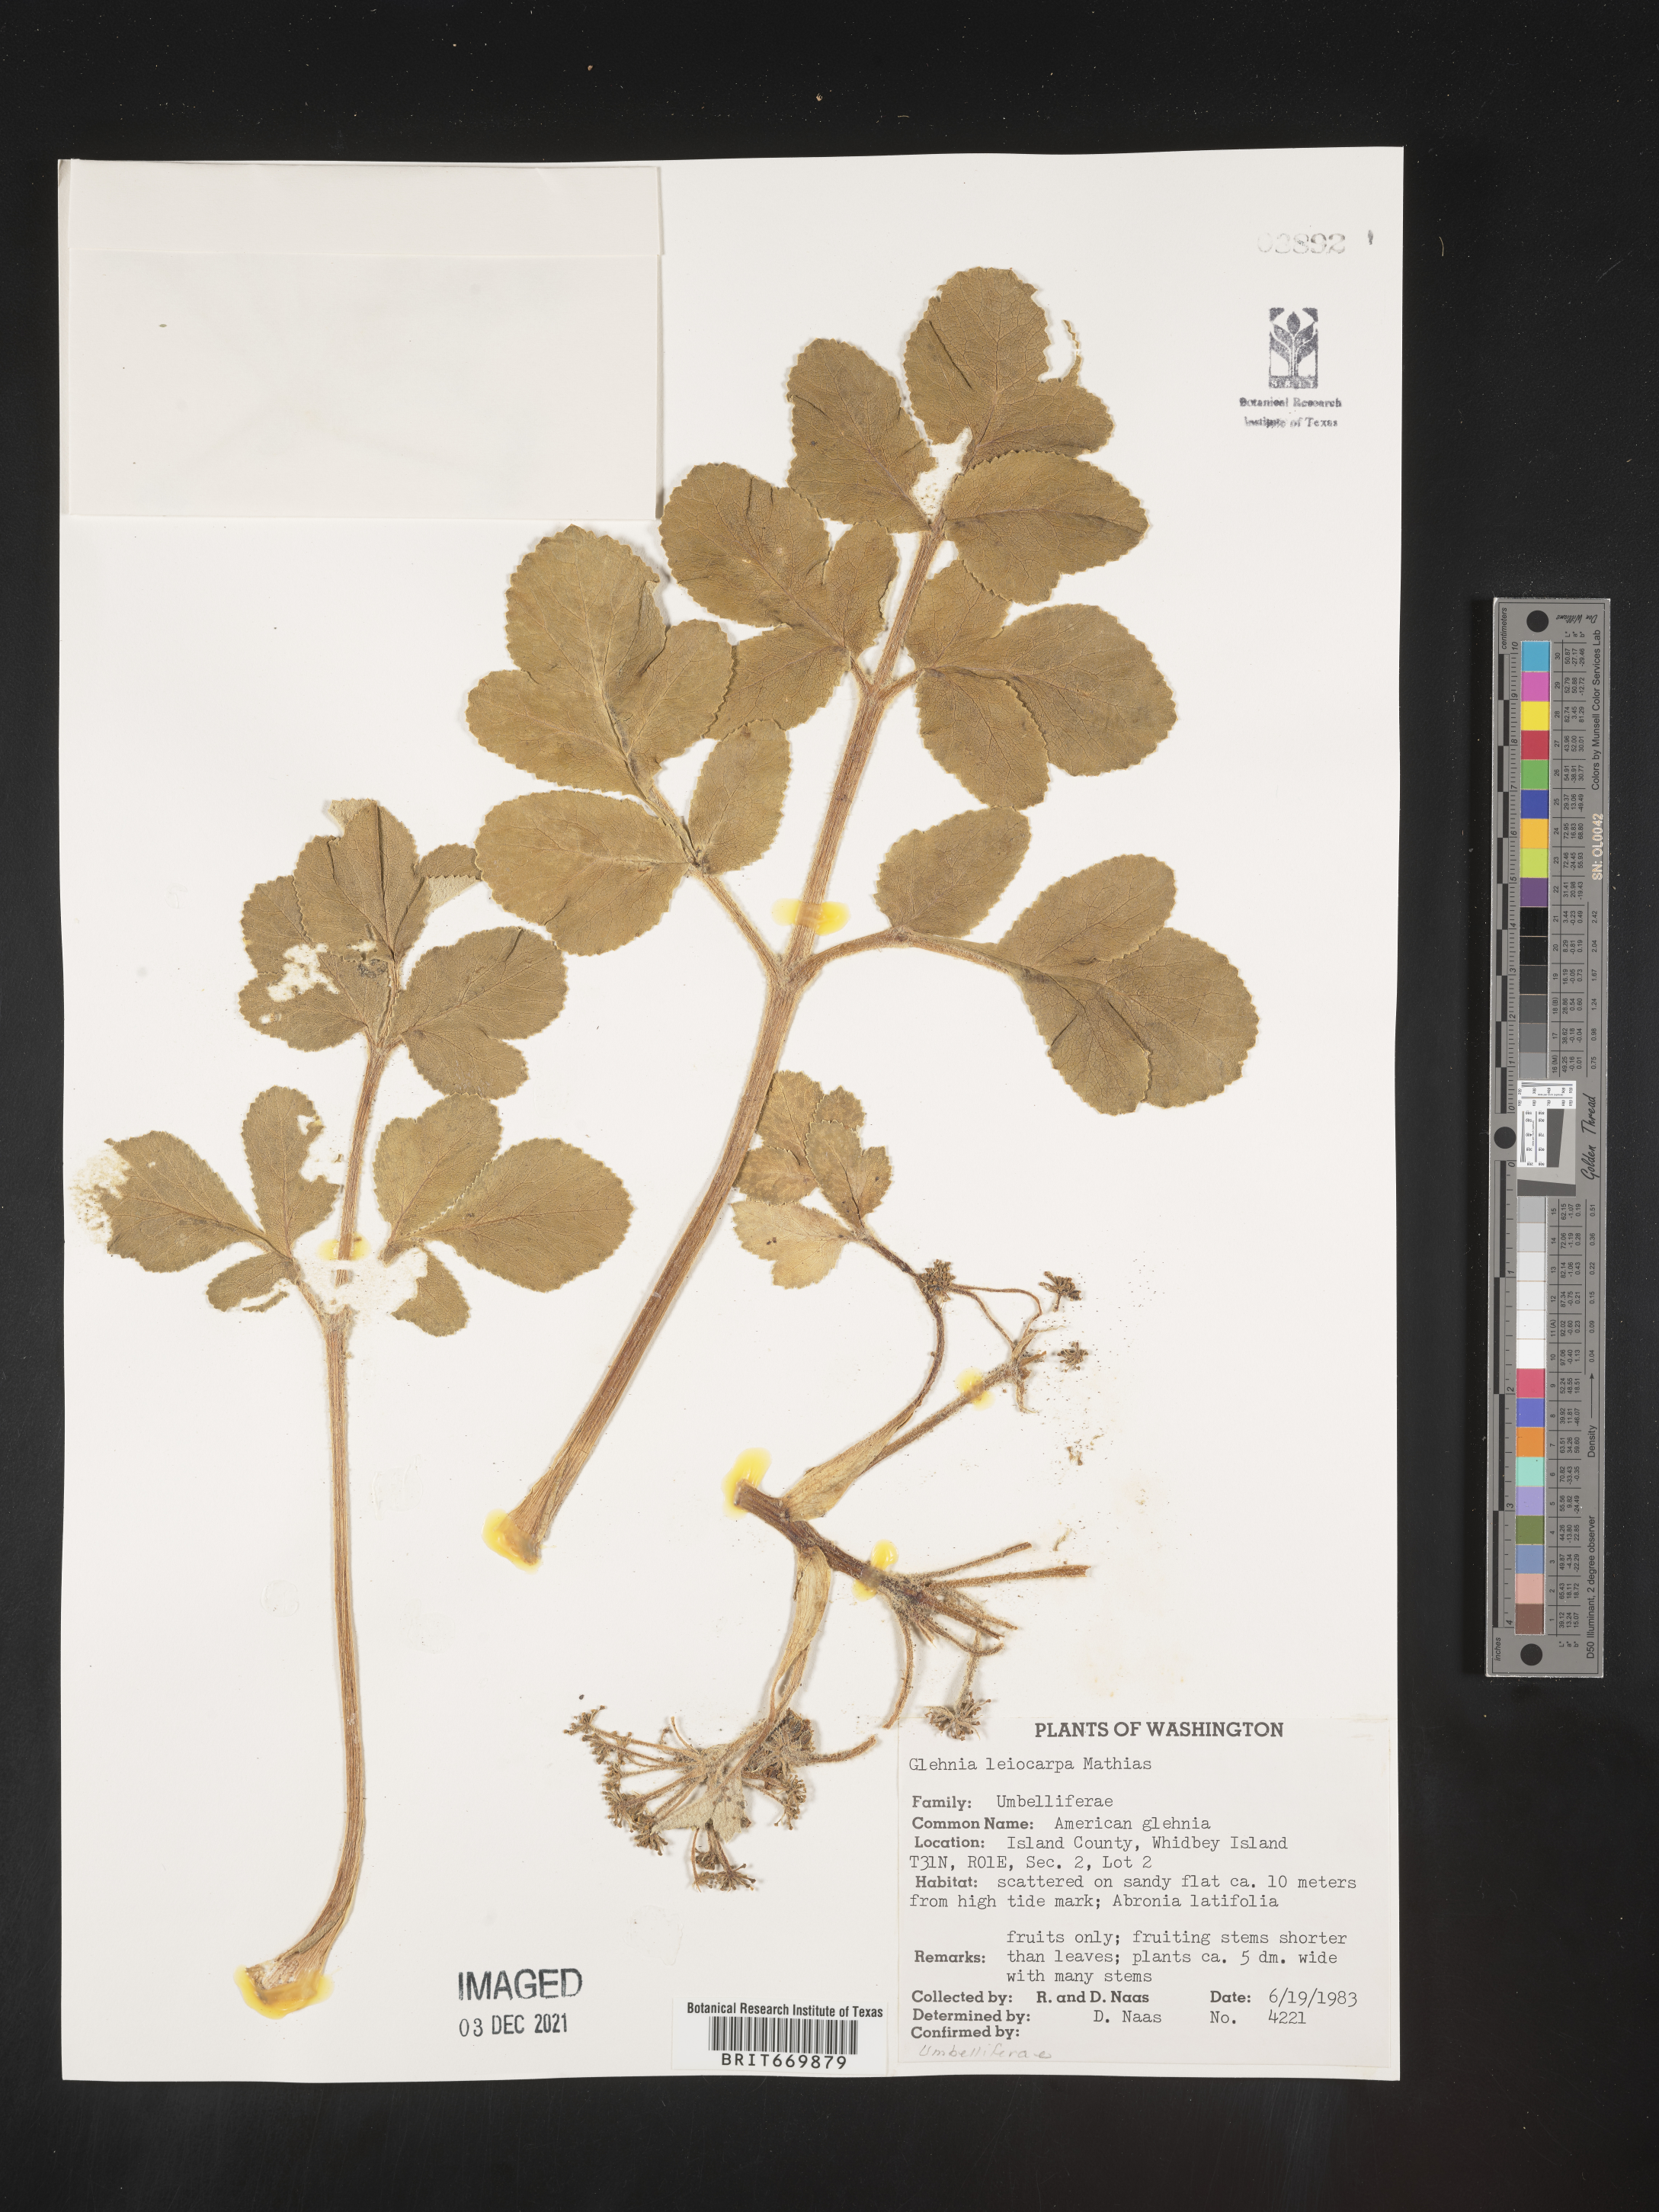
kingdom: Plantae
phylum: Tracheophyta
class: Magnoliopsida
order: Apiales
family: Apiaceae
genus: Glehnia
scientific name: Glehnia
